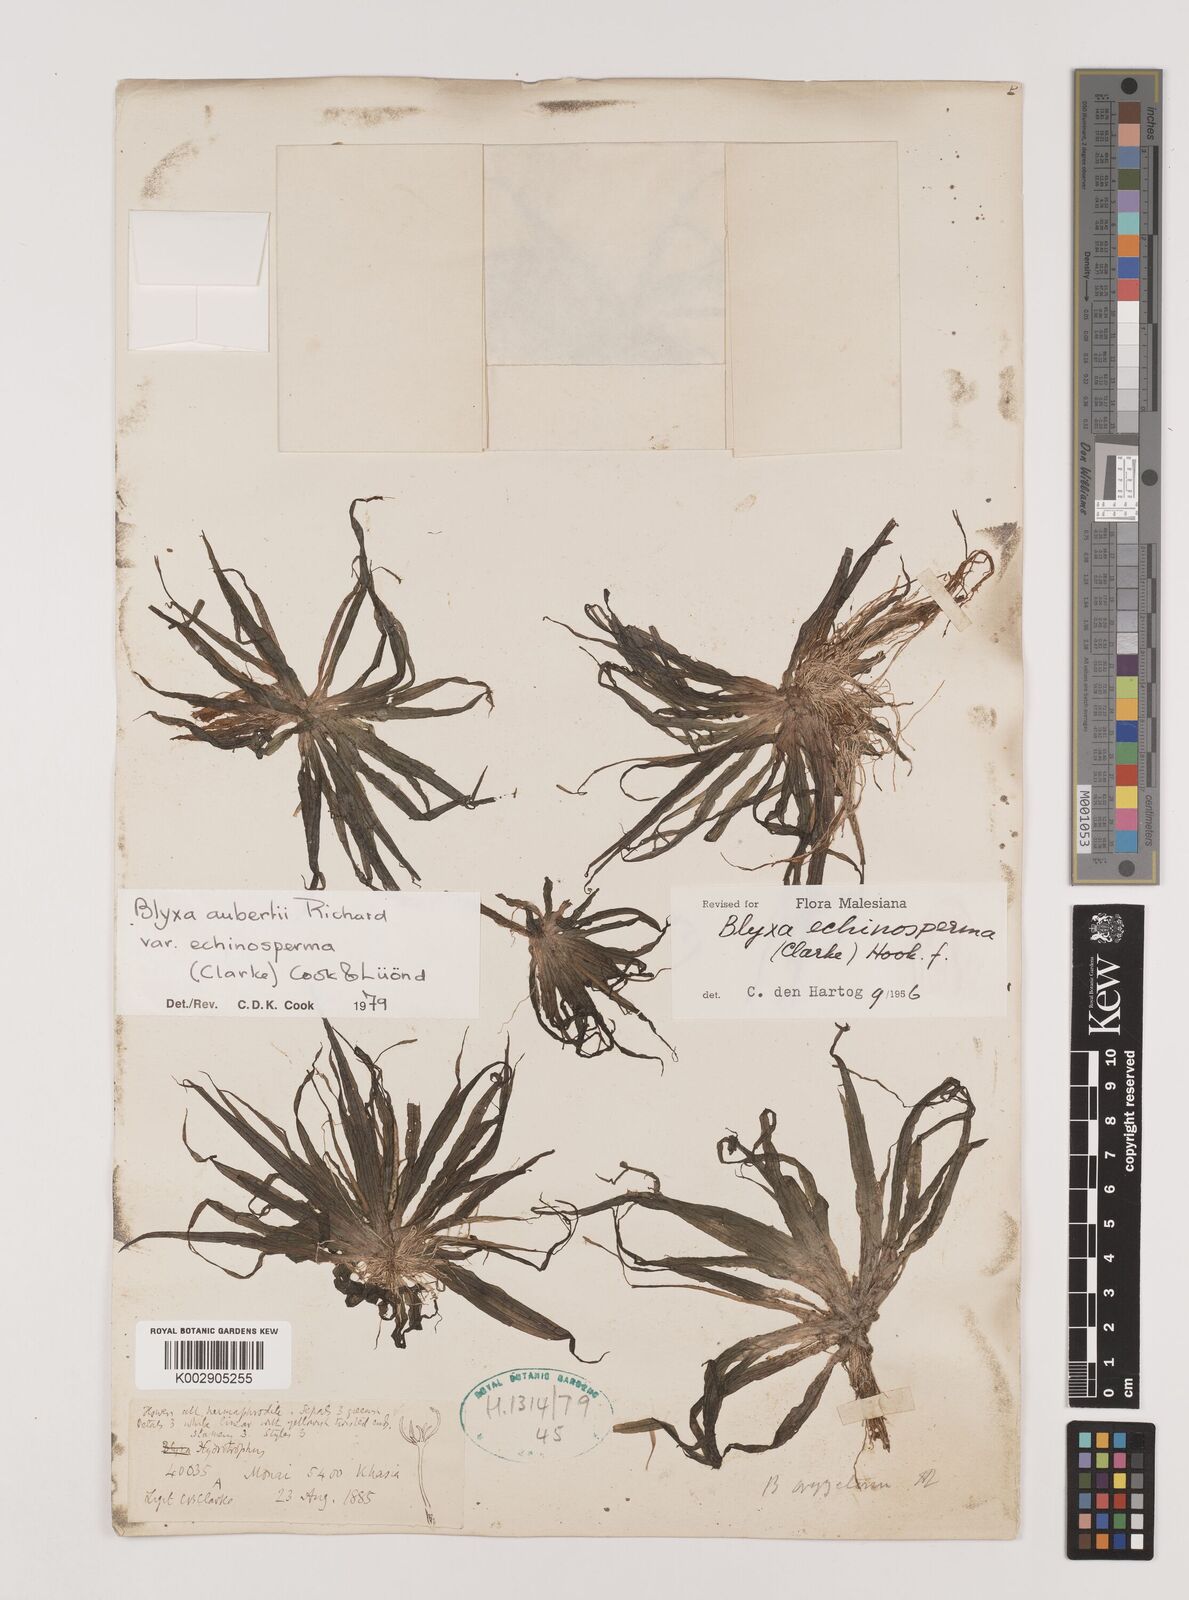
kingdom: Plantae
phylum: Tracheophyta
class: Liliopsida
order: Alismatales
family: Hydrocharitaceae
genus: Blyxa
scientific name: Blyxa echinosperma
